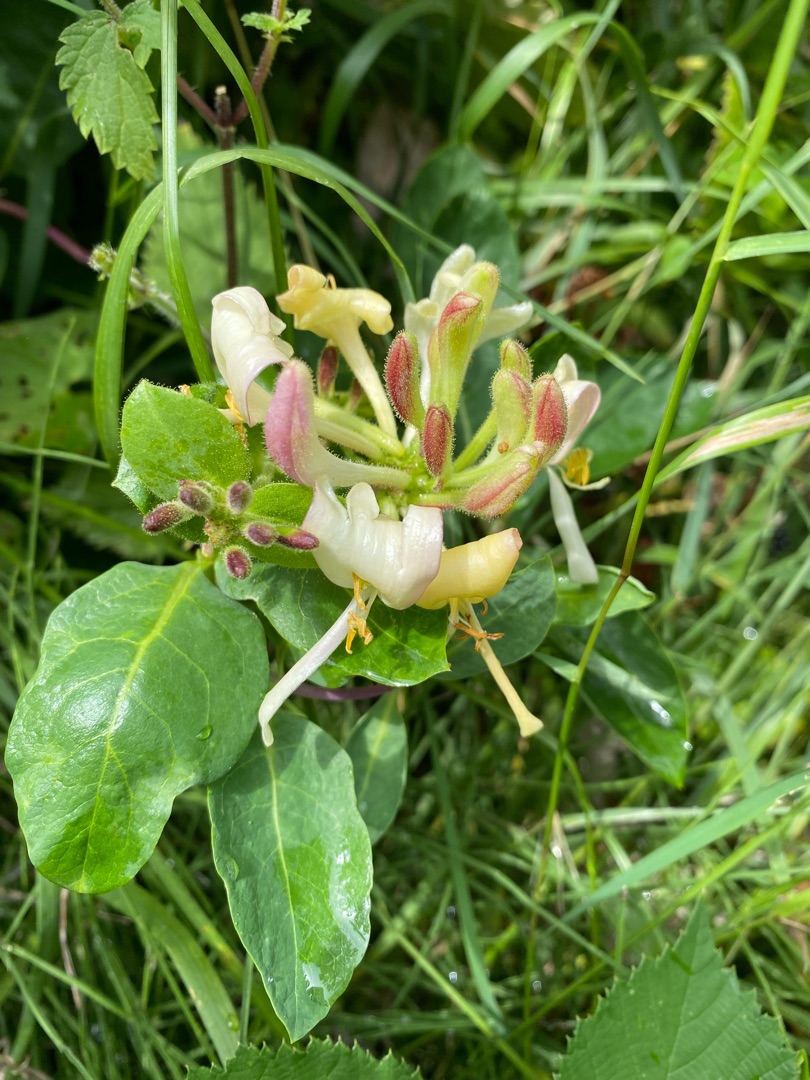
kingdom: Plantae
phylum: Tracheophyta
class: Magnoliopsida
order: Dipsacales
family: Caprifoliaceae
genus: Lonicera
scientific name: Lonicera periclymenum
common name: Almindelig gedeblad
